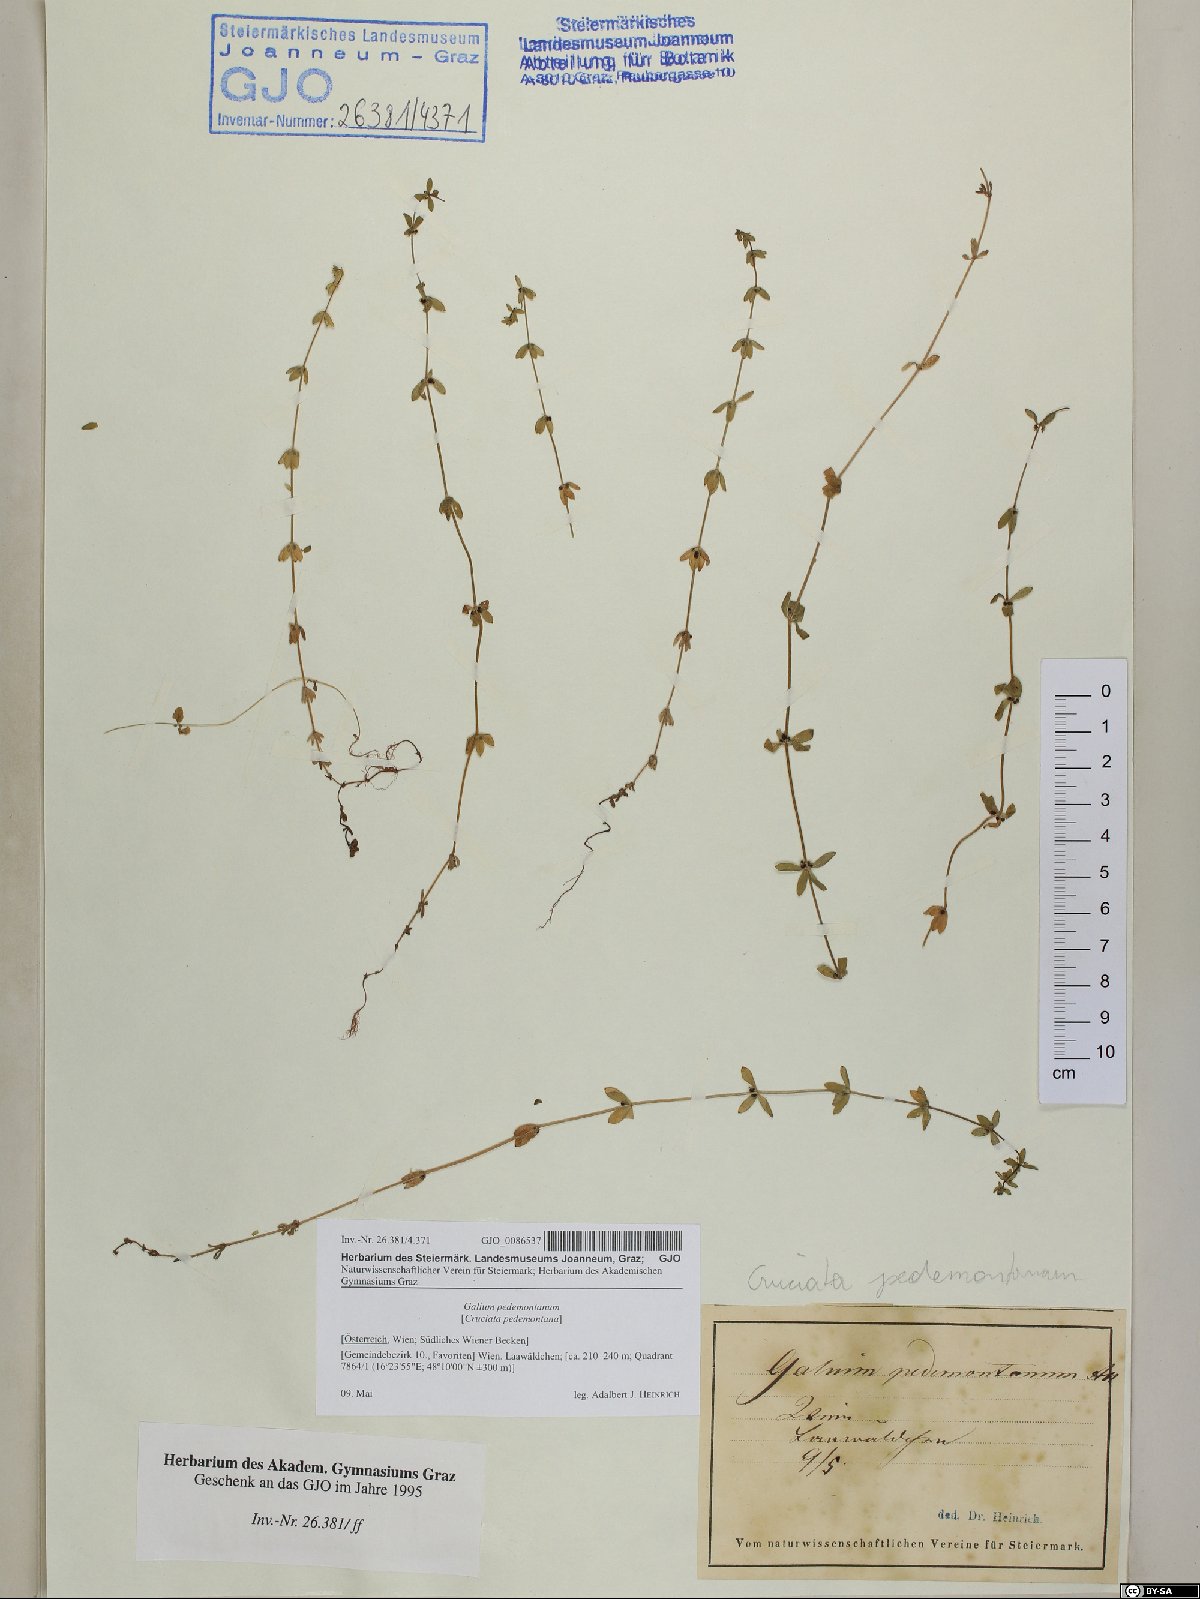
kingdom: Plantae
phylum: Tracheophyta
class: Magnoliopsida
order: Gentianales
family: Rubiaceae
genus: Cruciata
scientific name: Cruciata pedemontana
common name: Piedmont bedstraw
